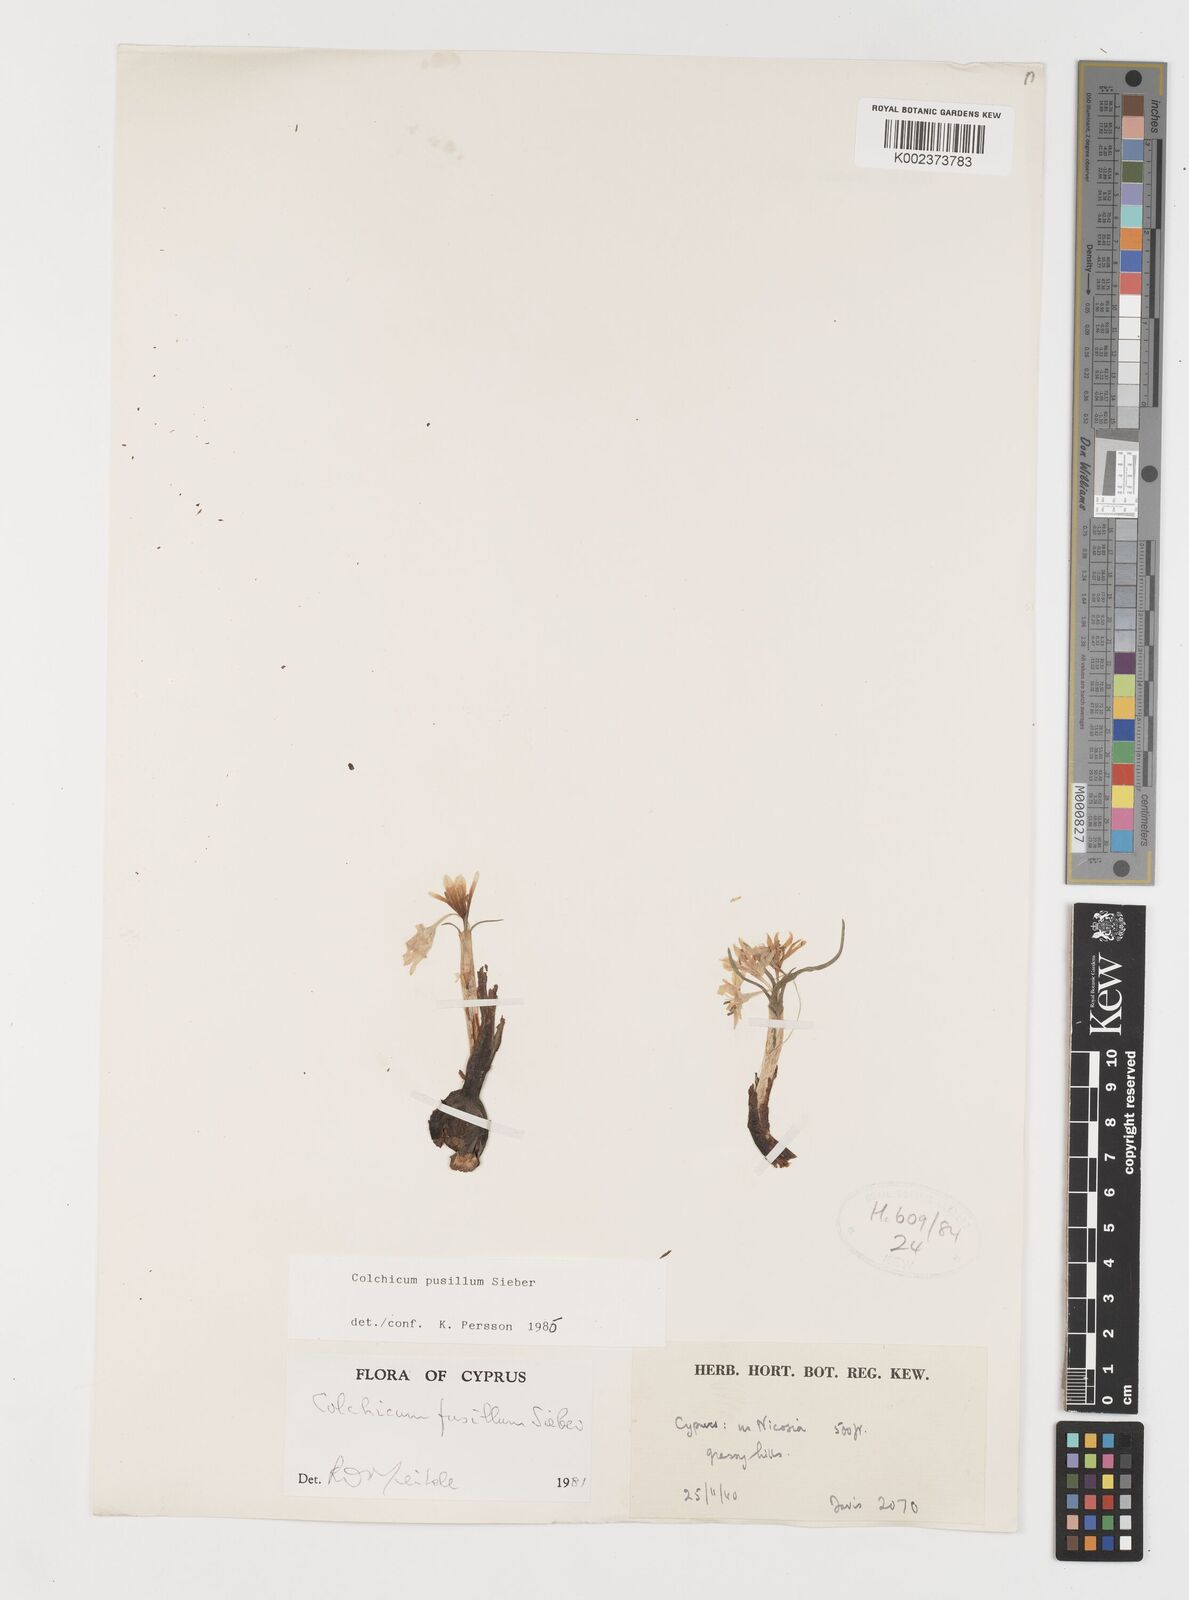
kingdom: Plantae
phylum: Tracheophyta
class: Liliopsida
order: Liliales
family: Colchicaceae
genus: Colchicum
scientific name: Colchicum pusillum
